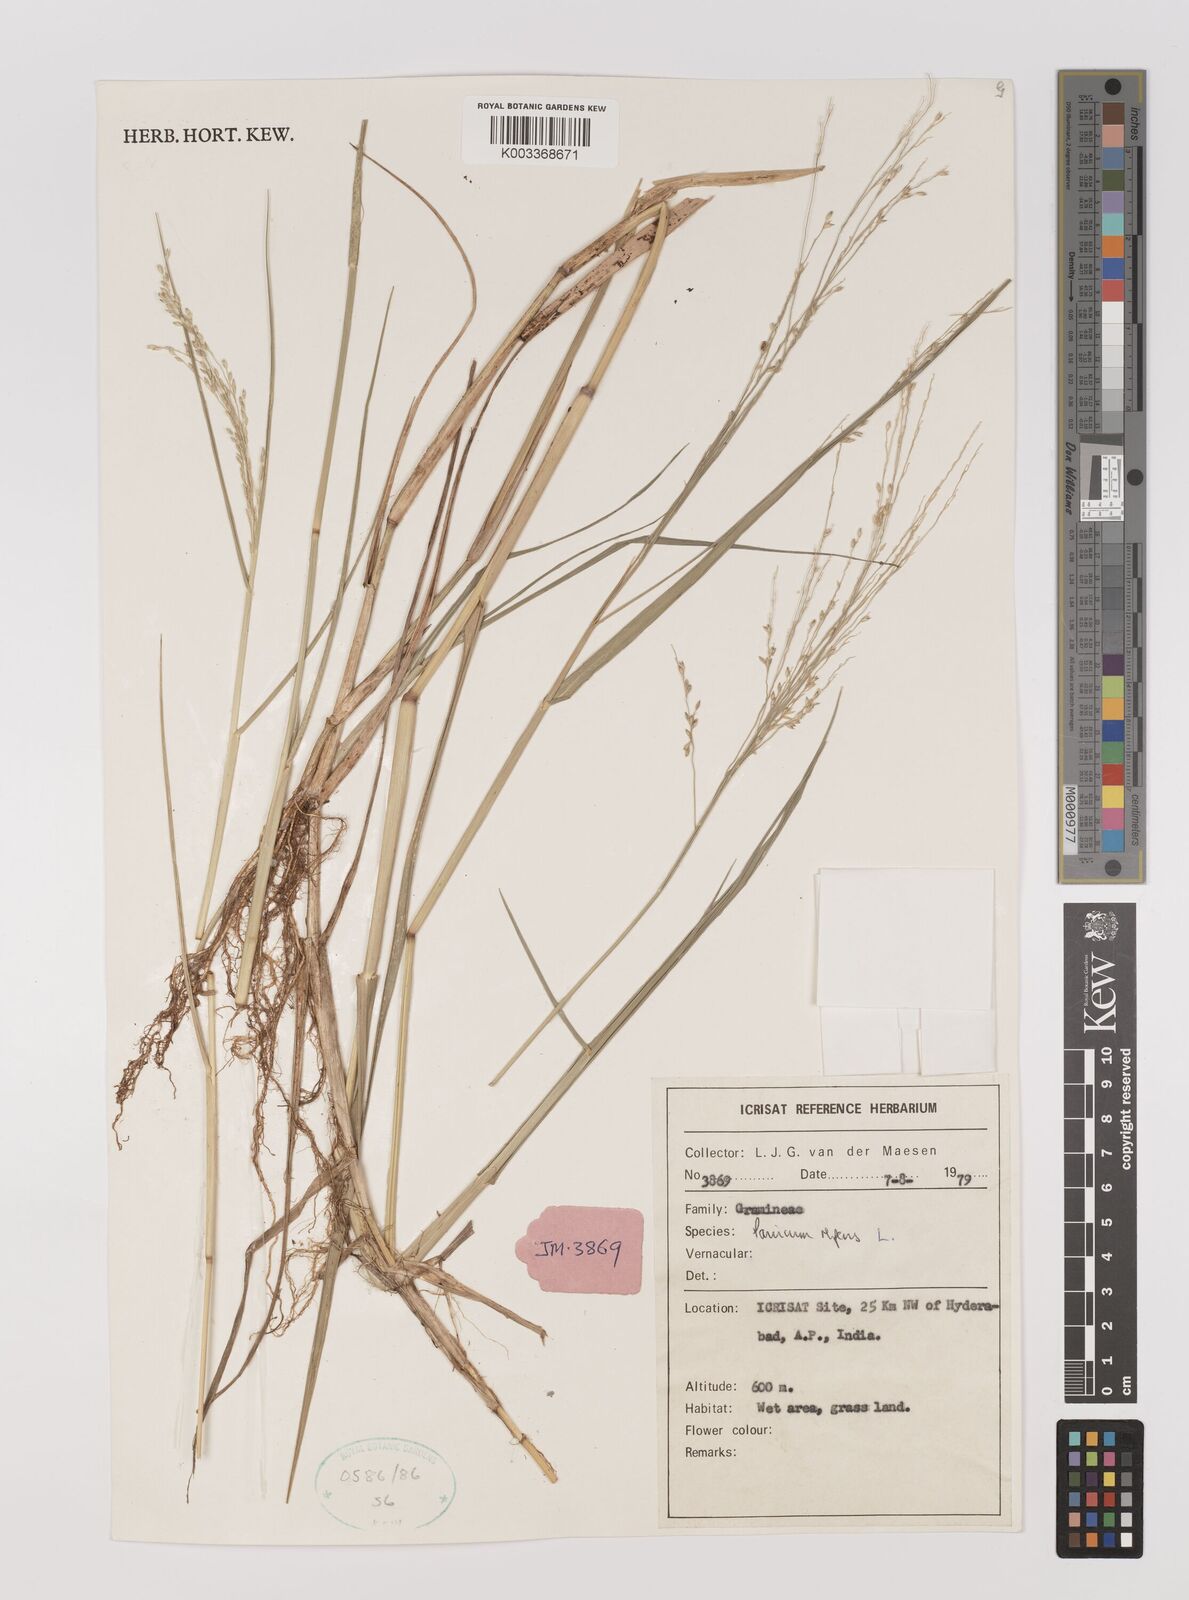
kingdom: Plantae
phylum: Tracheophyta
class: Liliopsida
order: Poales
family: Poaceae
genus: Panicum
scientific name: Panicum repens
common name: Torpedo grass
